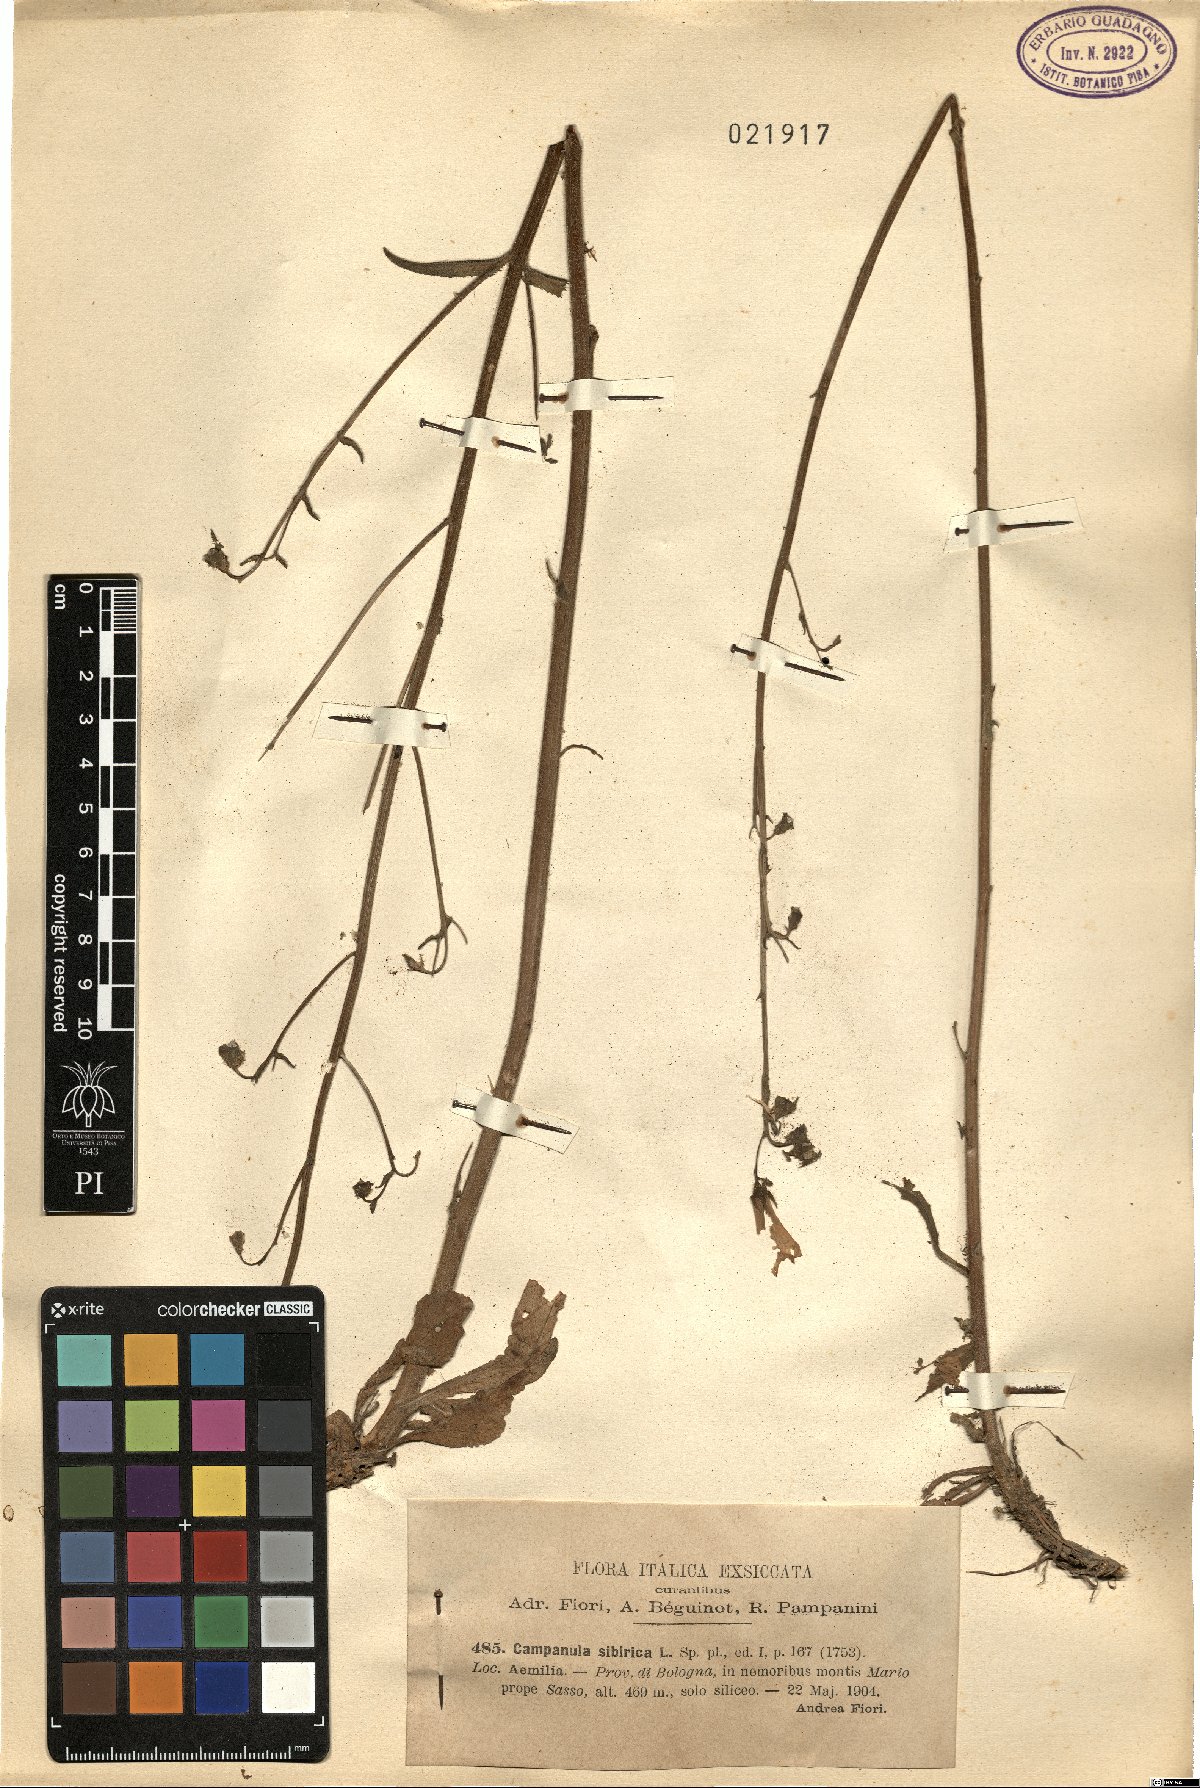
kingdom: Plantae
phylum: Tracheophyta
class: Magnoliopsida
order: Asterales
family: Campanulaceae
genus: Campanula
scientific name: Campanula sibirica
